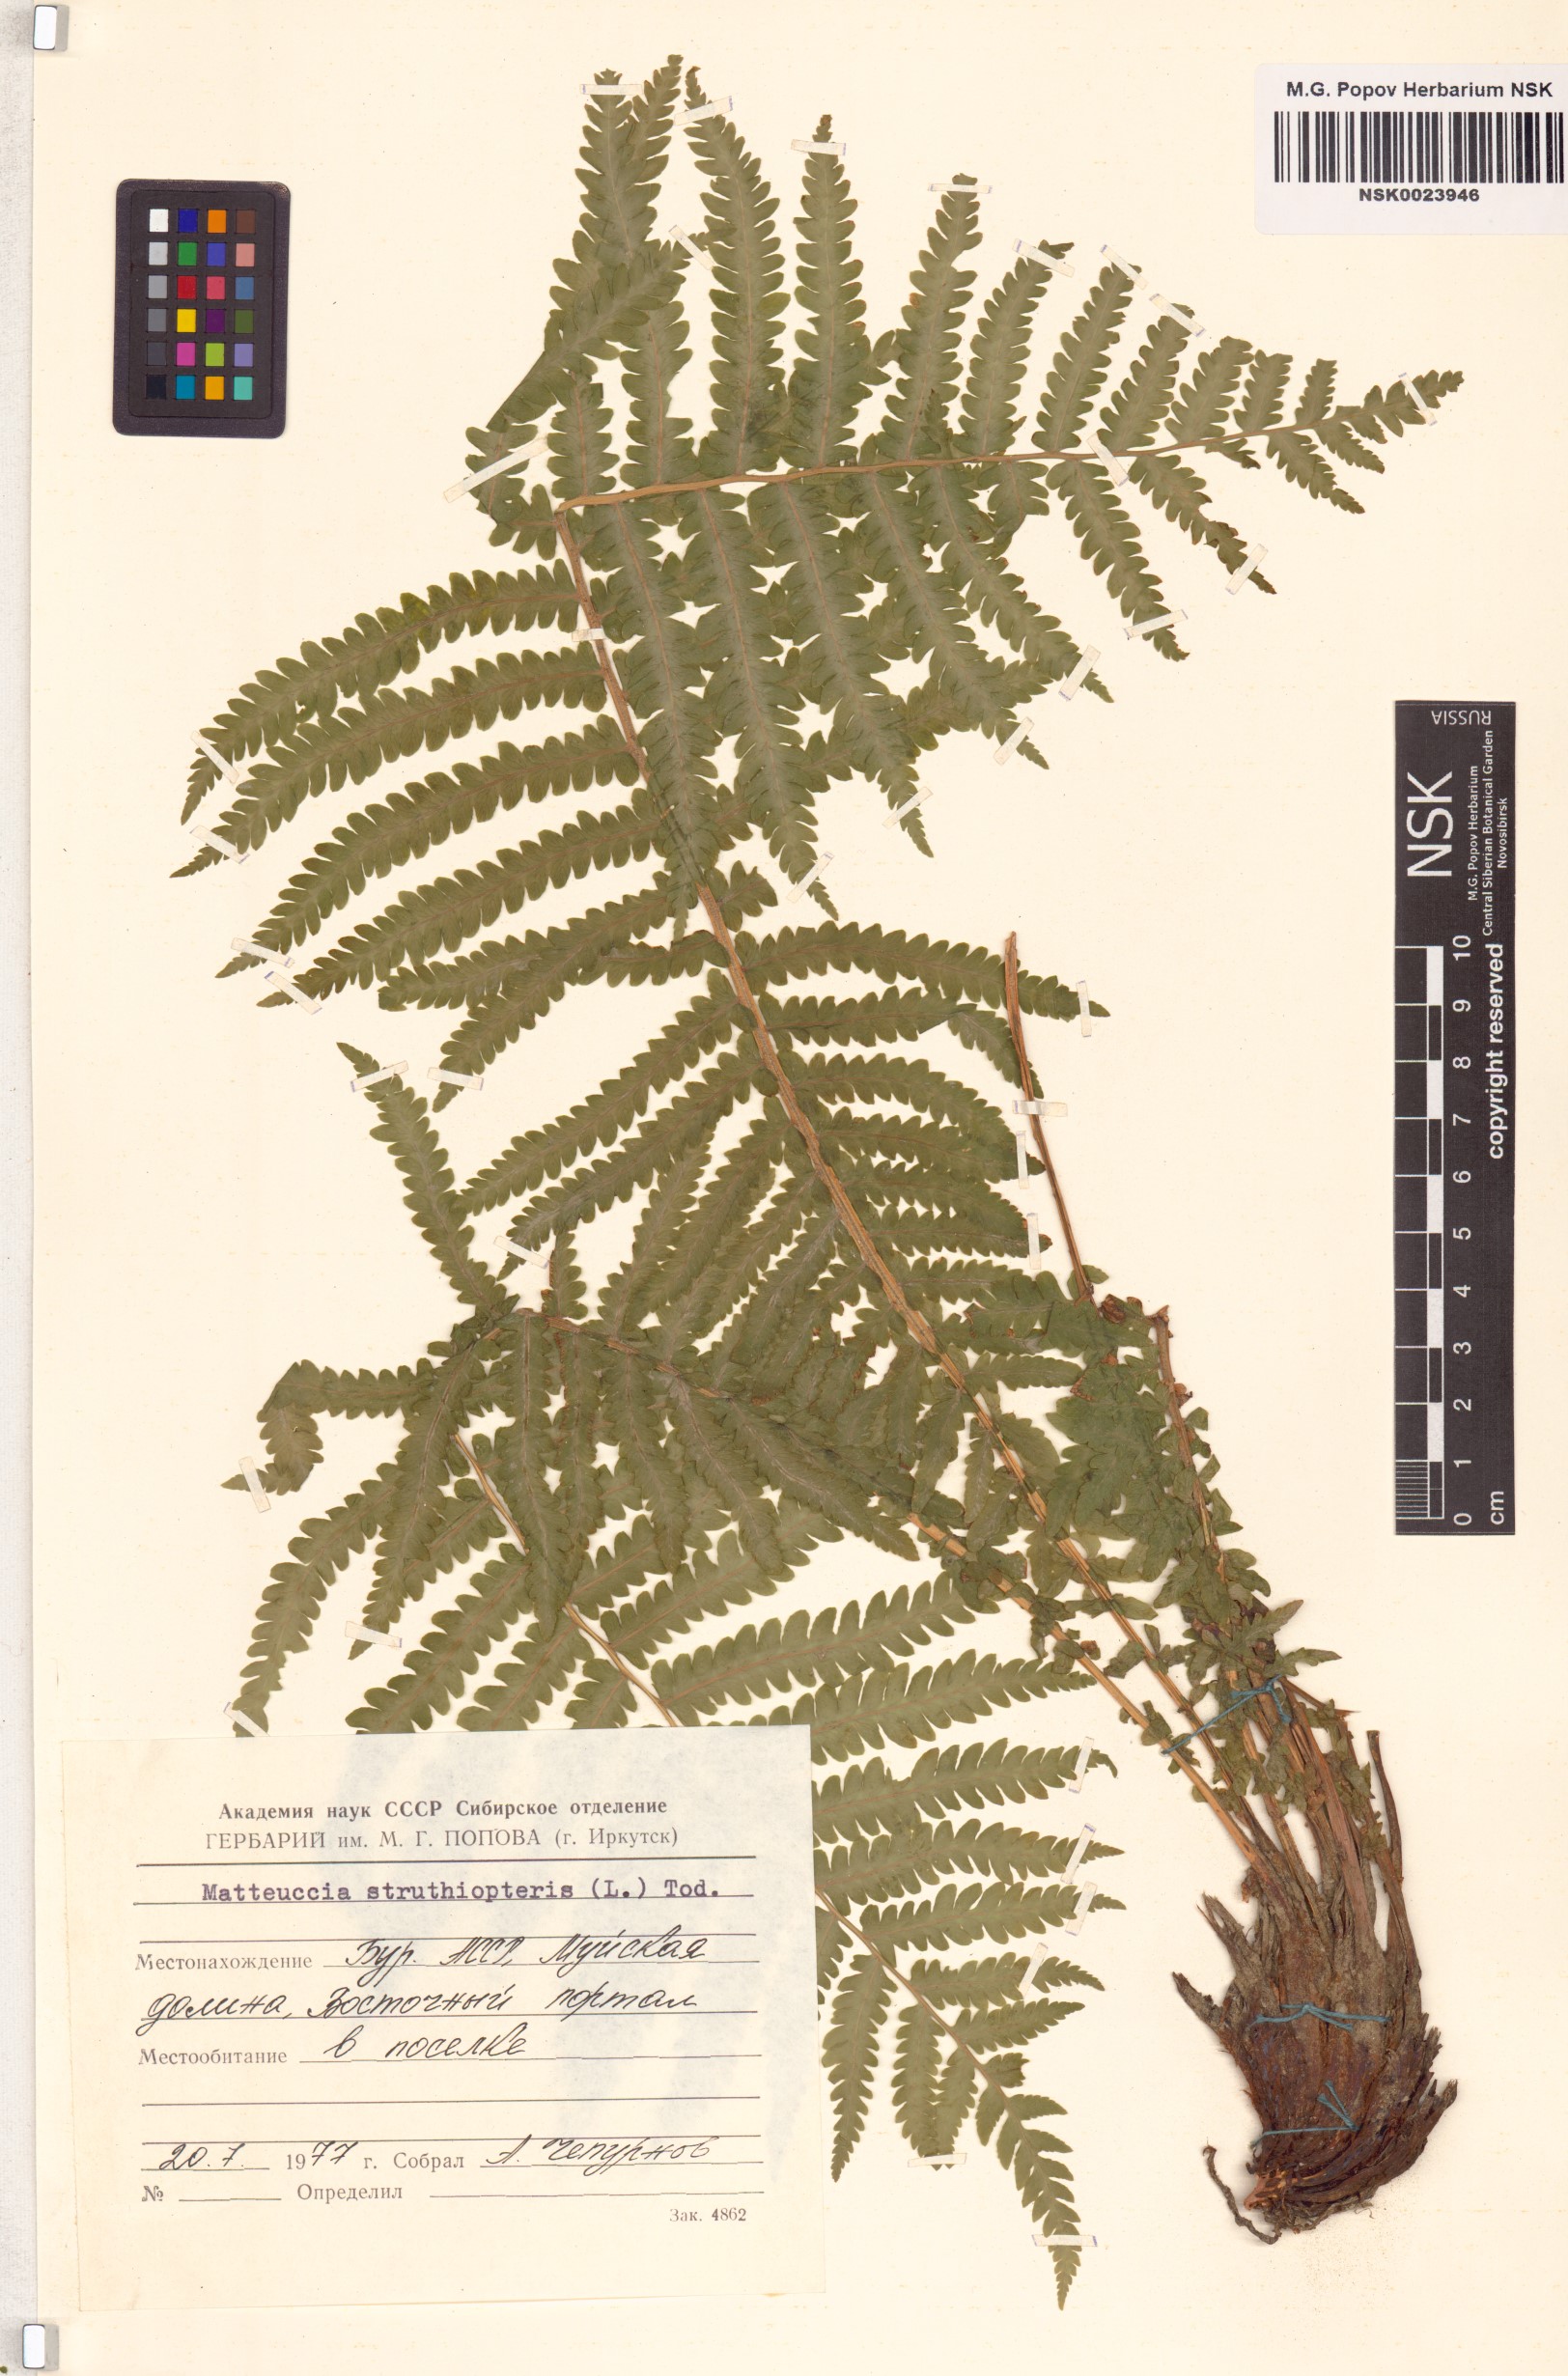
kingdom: Plantae
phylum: Tracheophyta
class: Polypodiopsida
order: Polypodiales
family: Onocleaceae
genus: Matteuccia
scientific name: Matteuccia struthiopteris
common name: Ostrich fern
